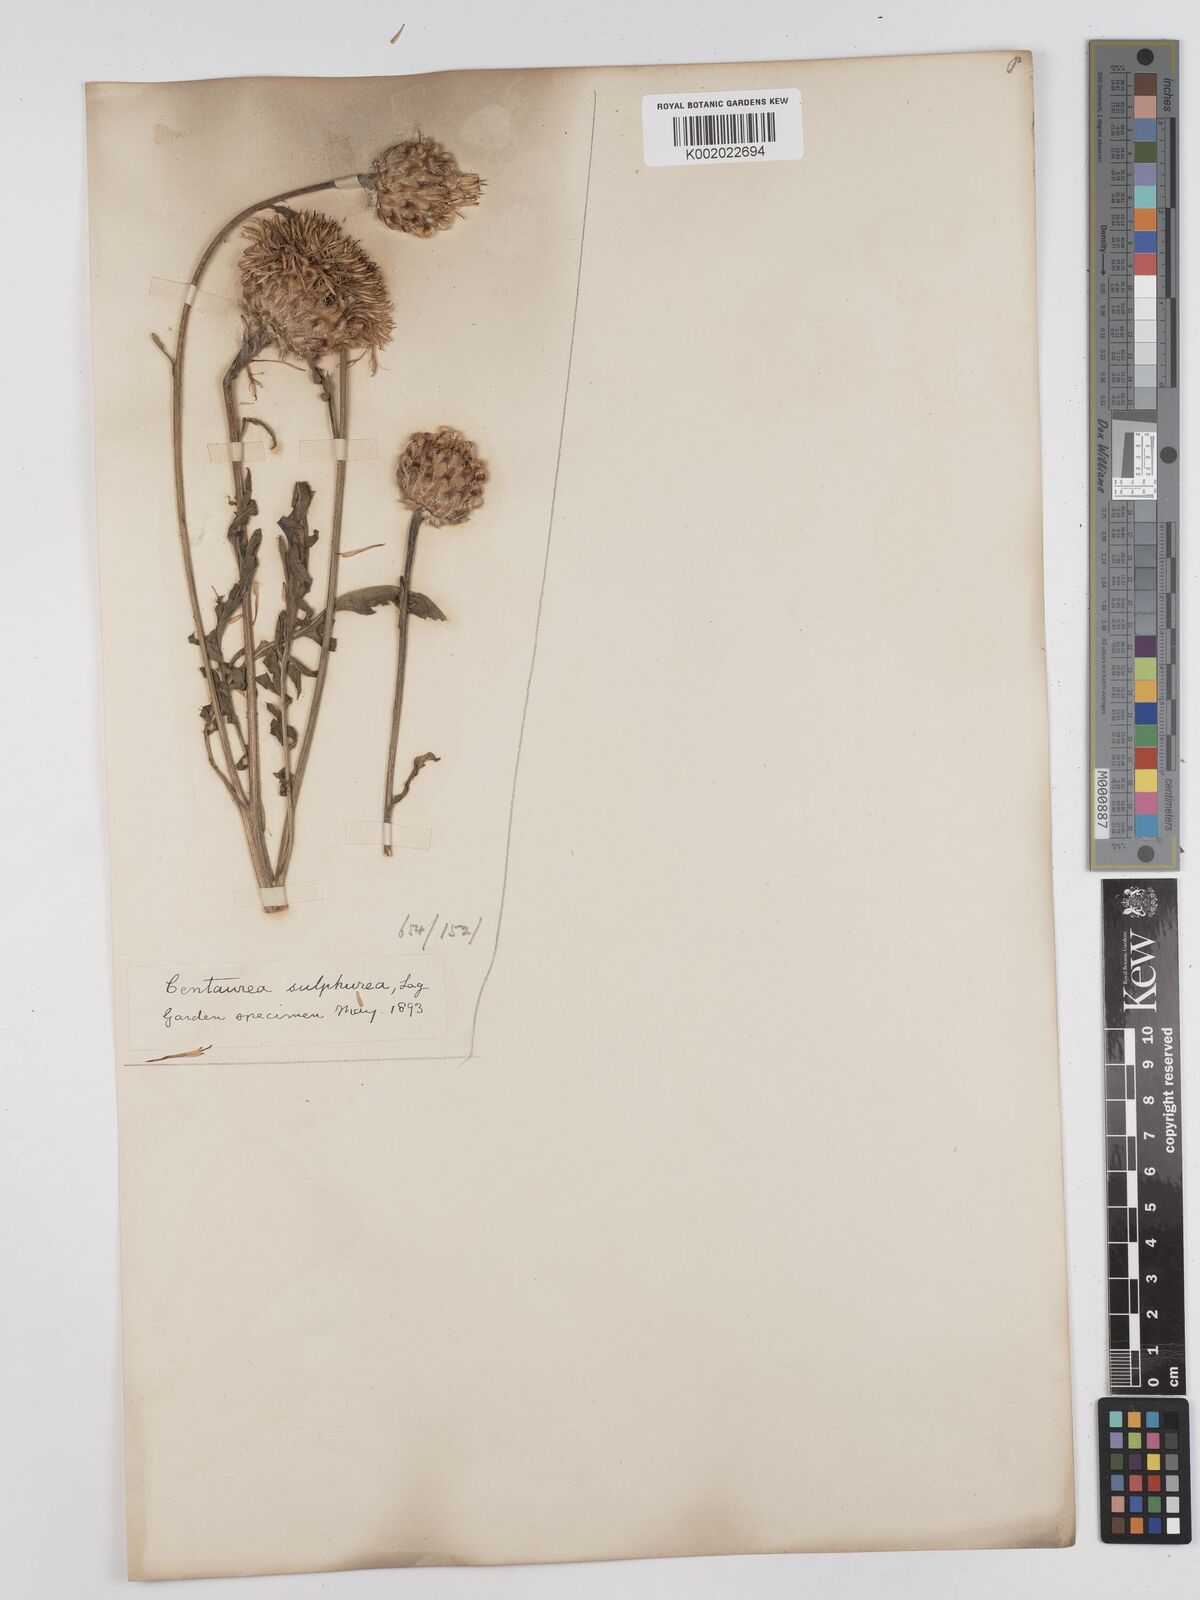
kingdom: Plantae
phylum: Tracheophyta
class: Magnoliopsida
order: Asterales
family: Asteraceae
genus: Centaurea
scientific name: Centaurea calocephala
